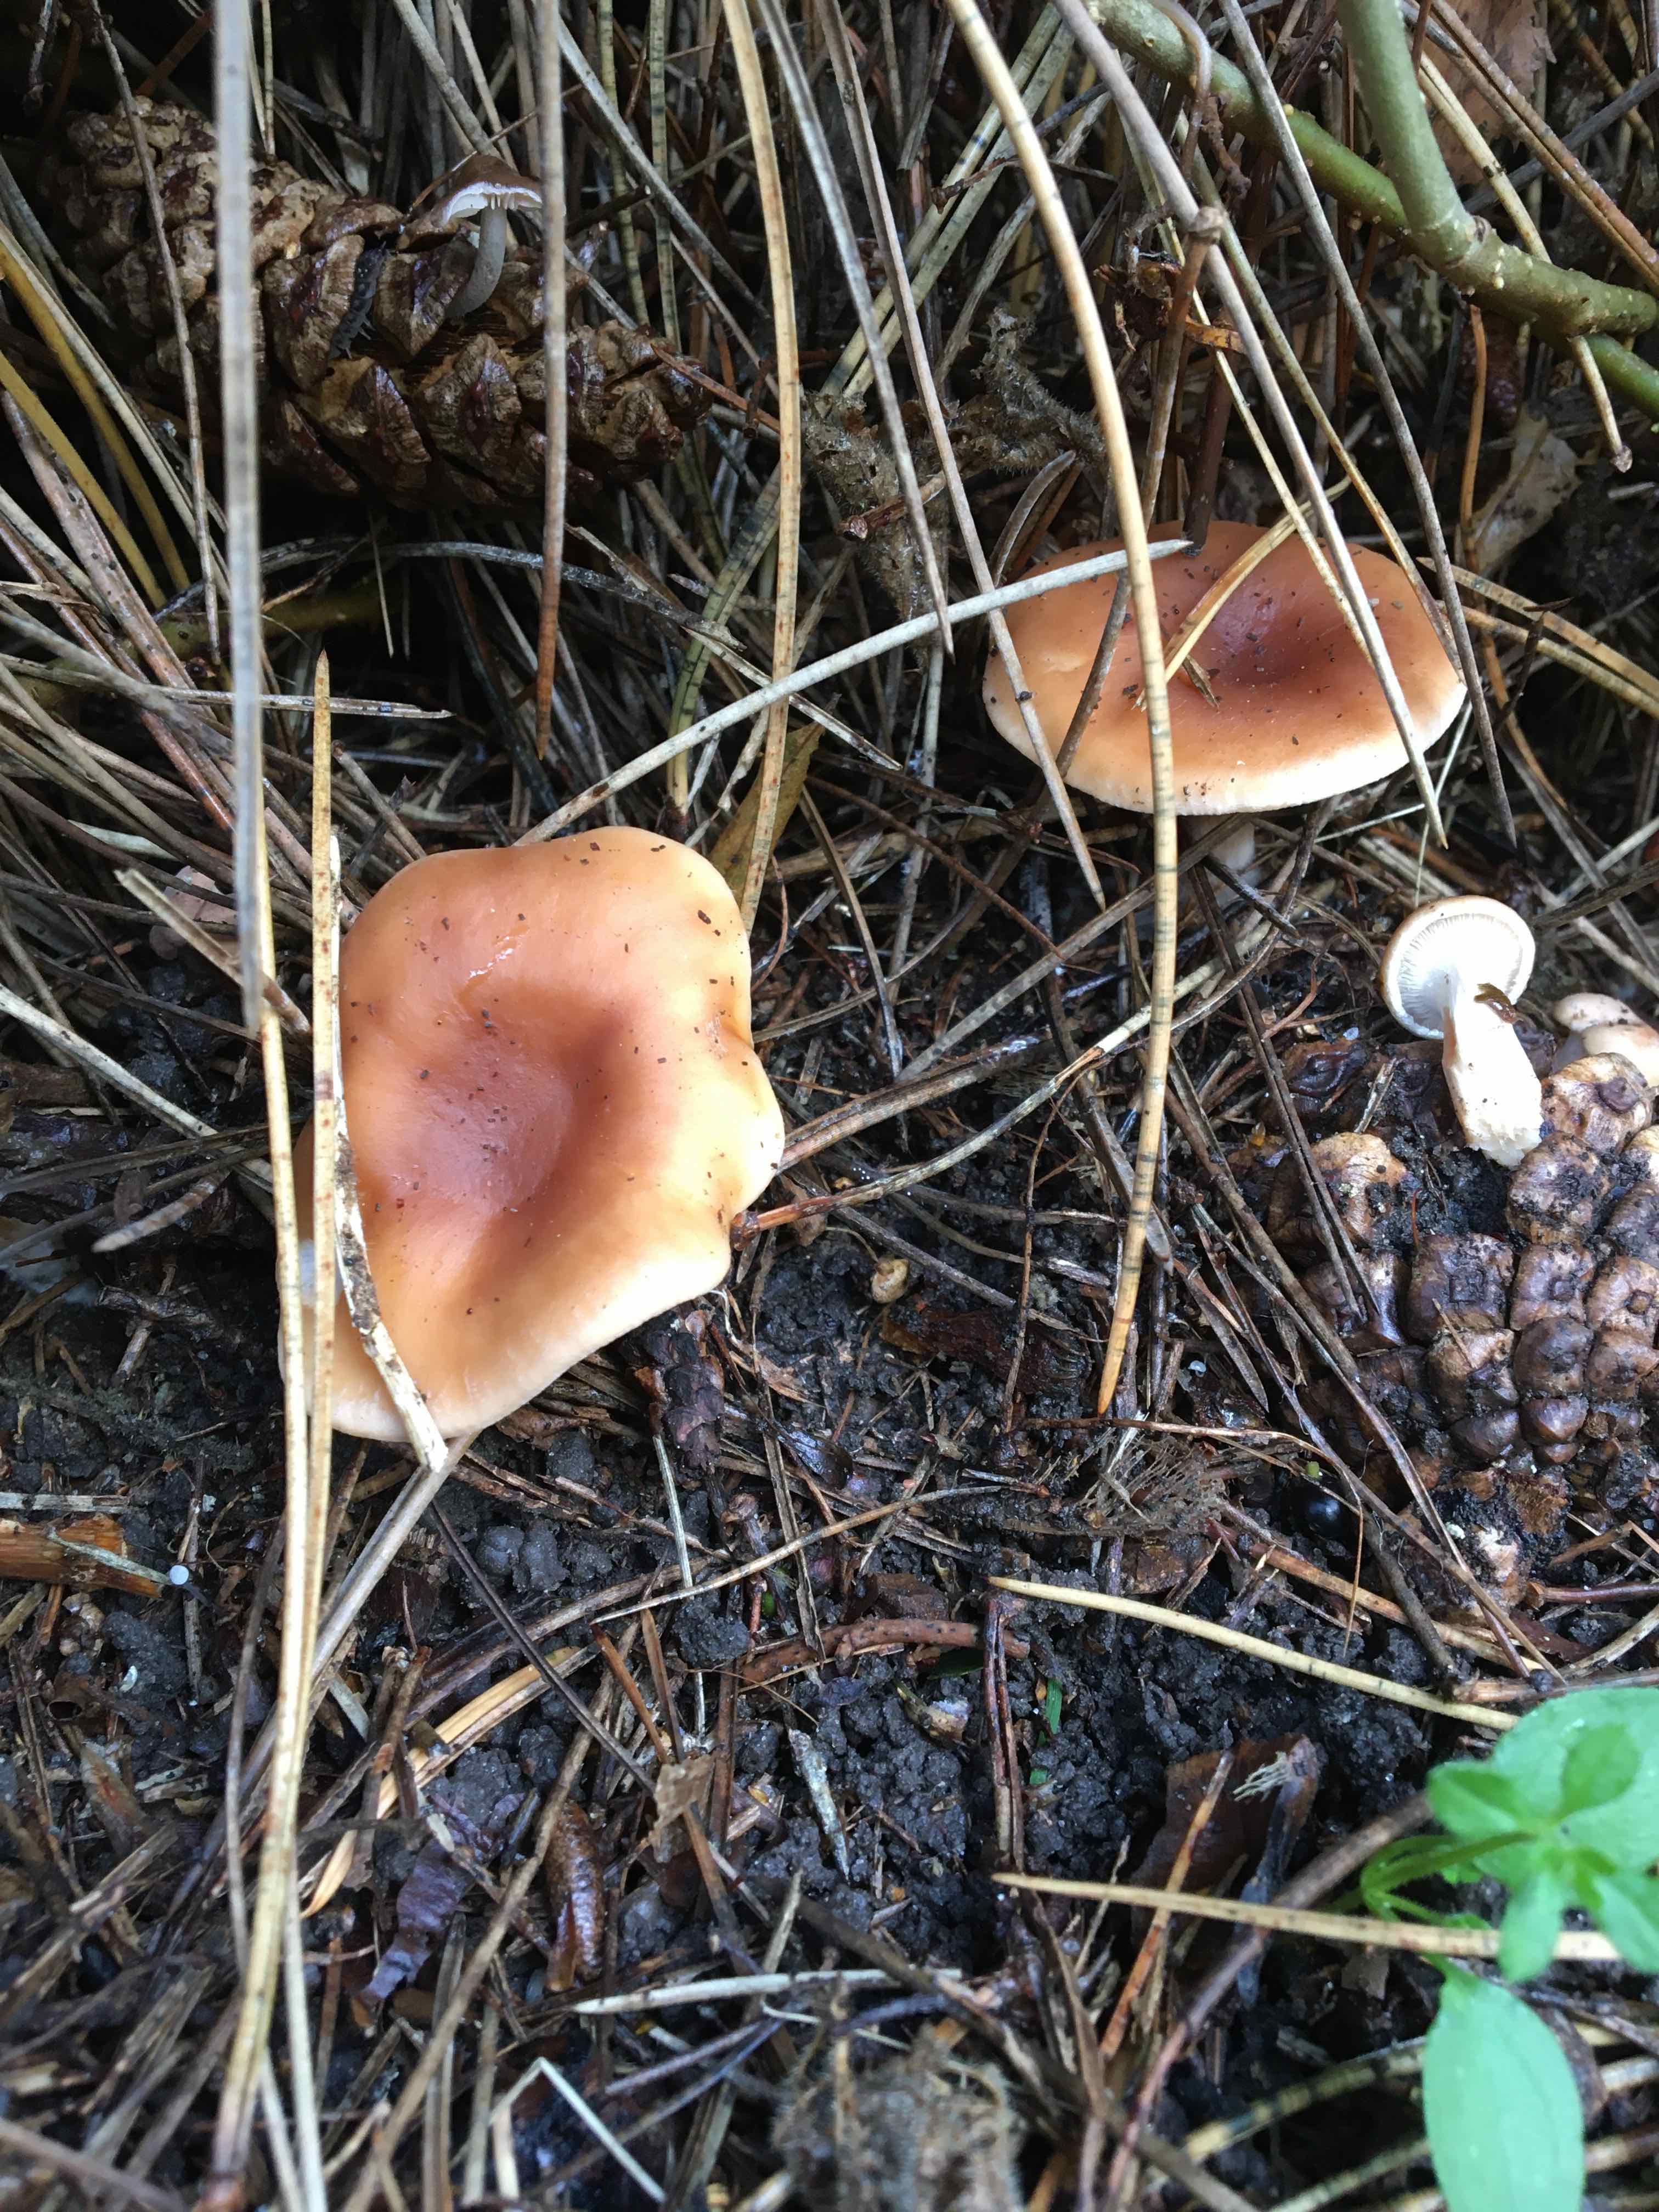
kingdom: Fungi
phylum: Basidiomycota
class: Agaricomycetes
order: Agaricales
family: Tricholomataceae
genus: Paralepista
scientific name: Paralepista flaccida
